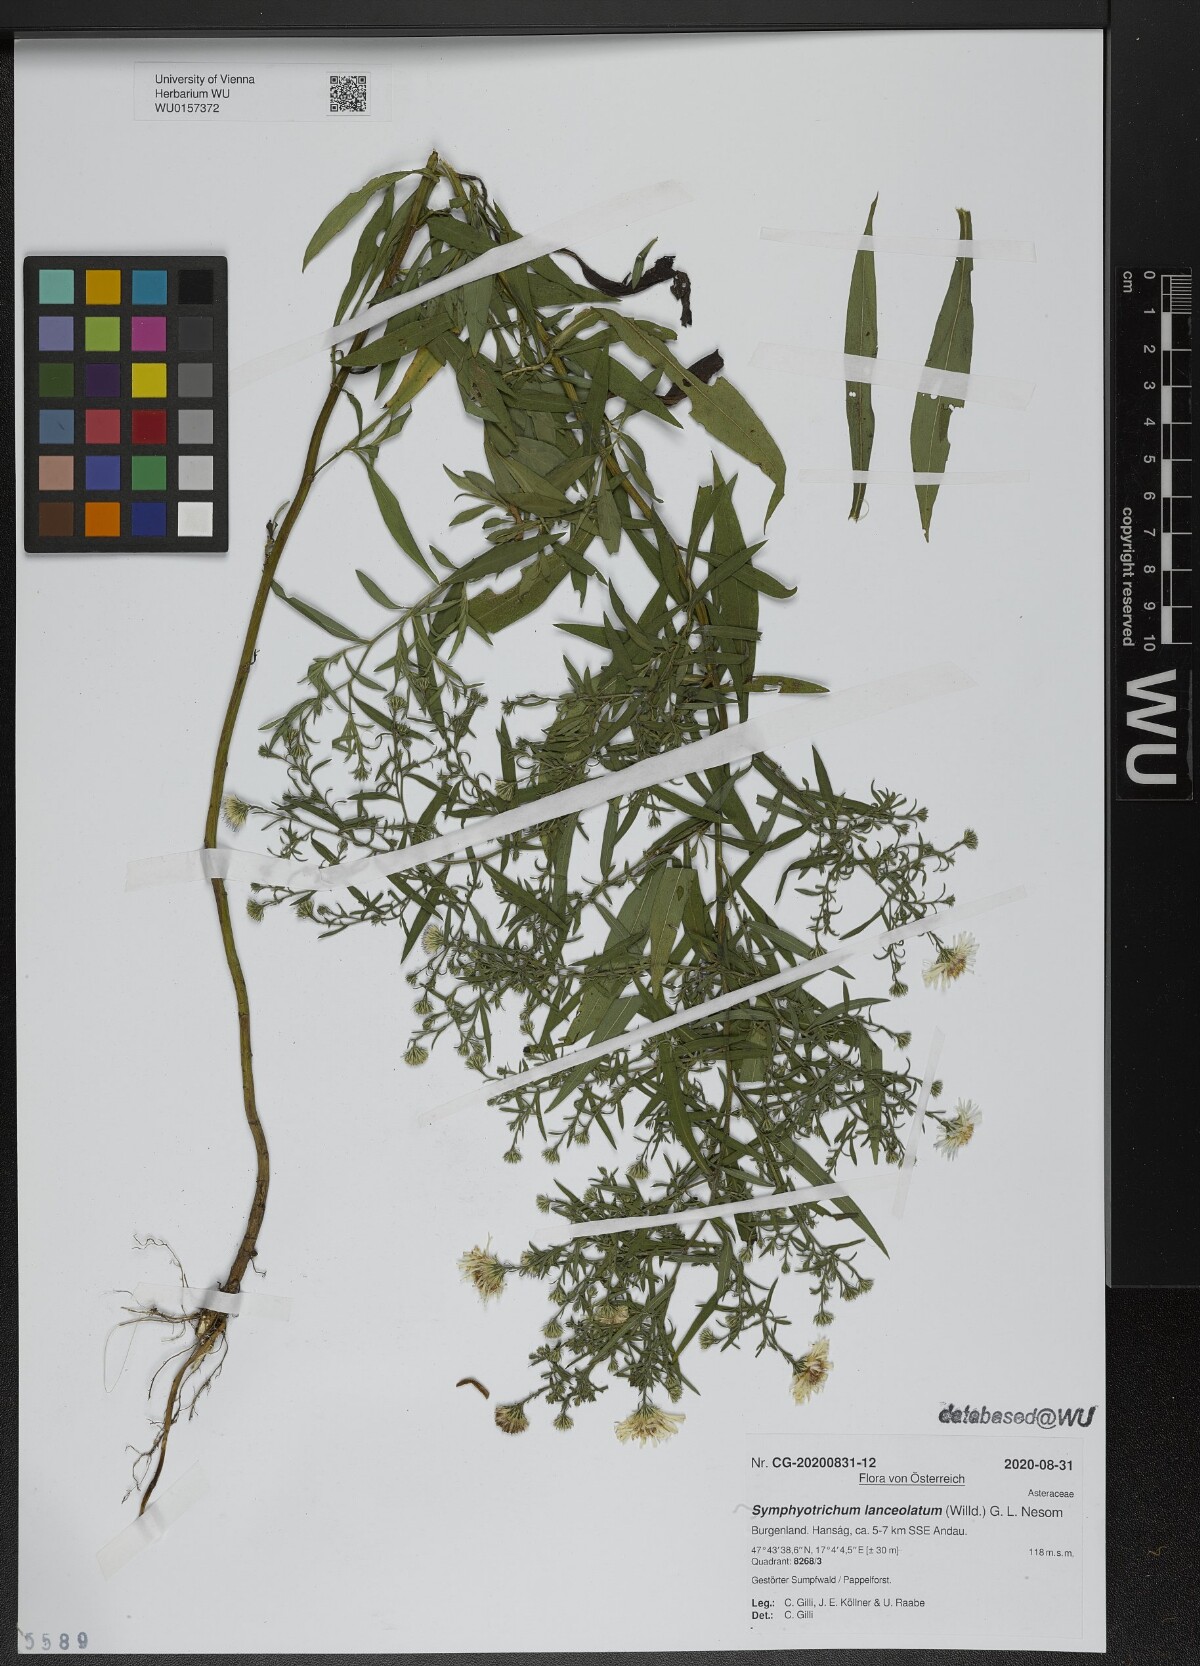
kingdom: Plantae
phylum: Tracheophyta
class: Magnoliopsida
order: Asterales
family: Asteraceae
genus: Symphyotrichum
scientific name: Symphyotrichum lanceolatum
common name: Panicled aster
